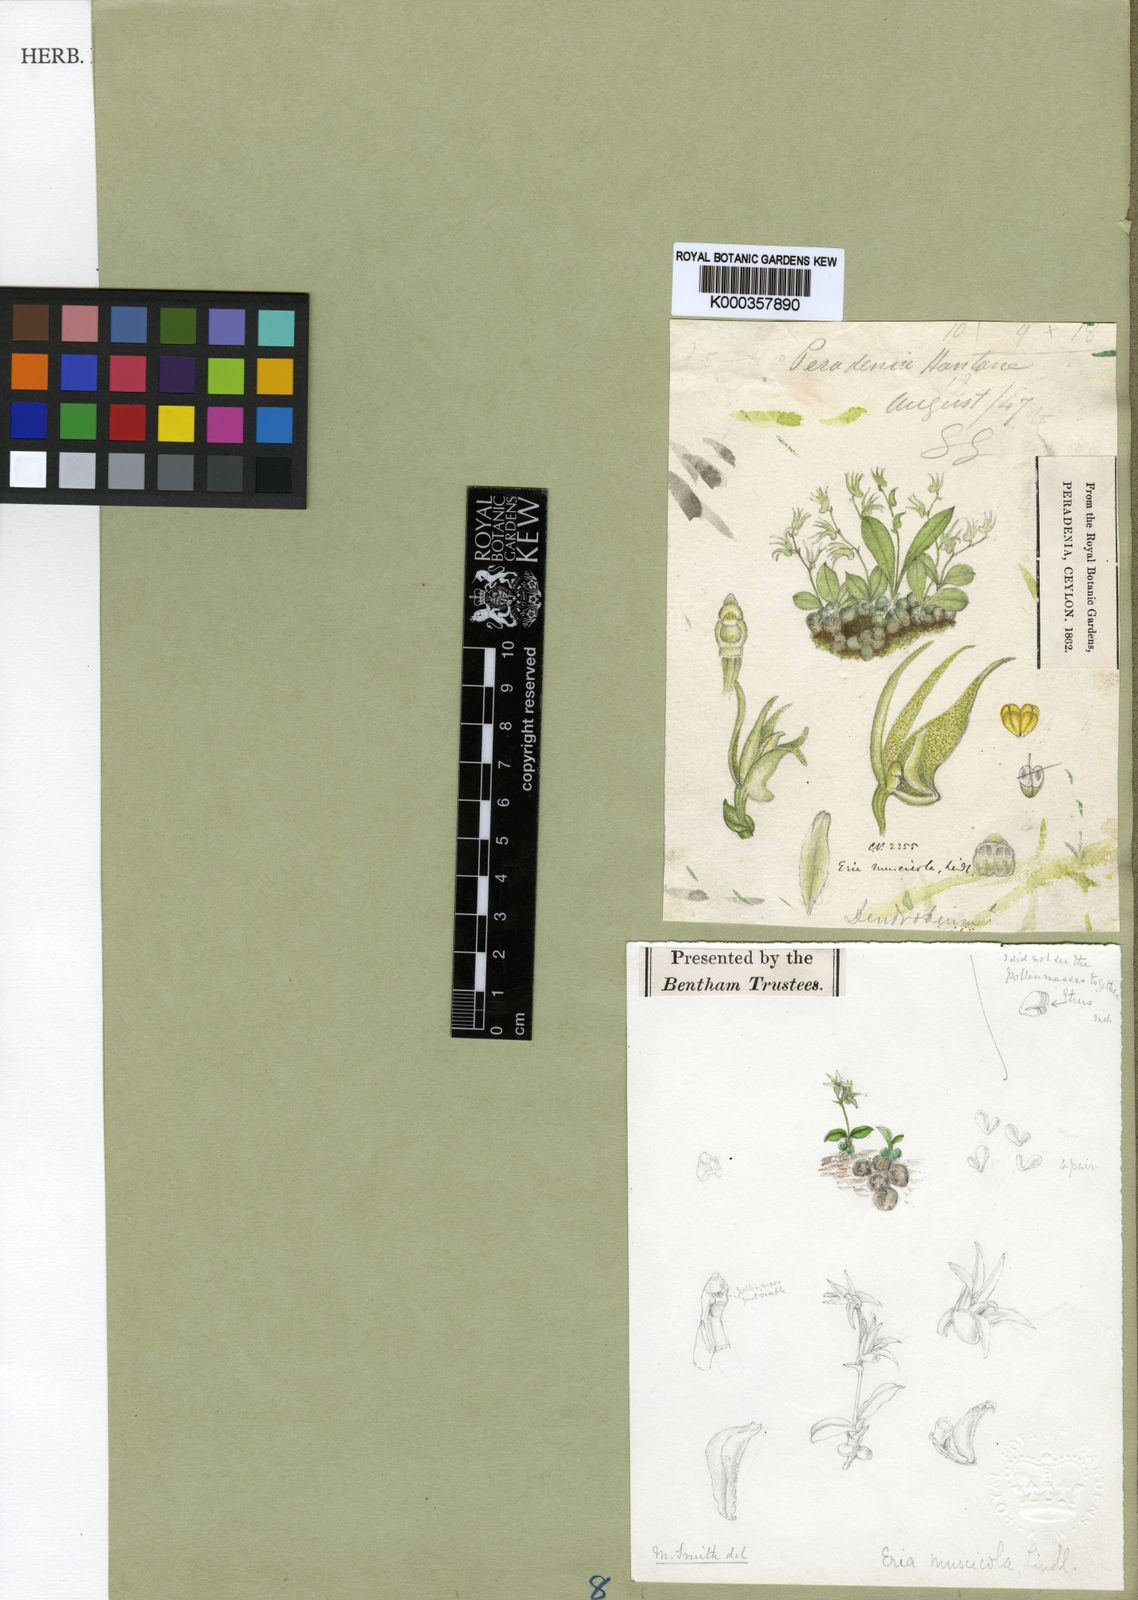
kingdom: Plantae
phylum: Tracheophyta
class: Liliopsida
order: Asparagales
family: Orchidaceae
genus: Porpax
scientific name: Porpax parviflorum
